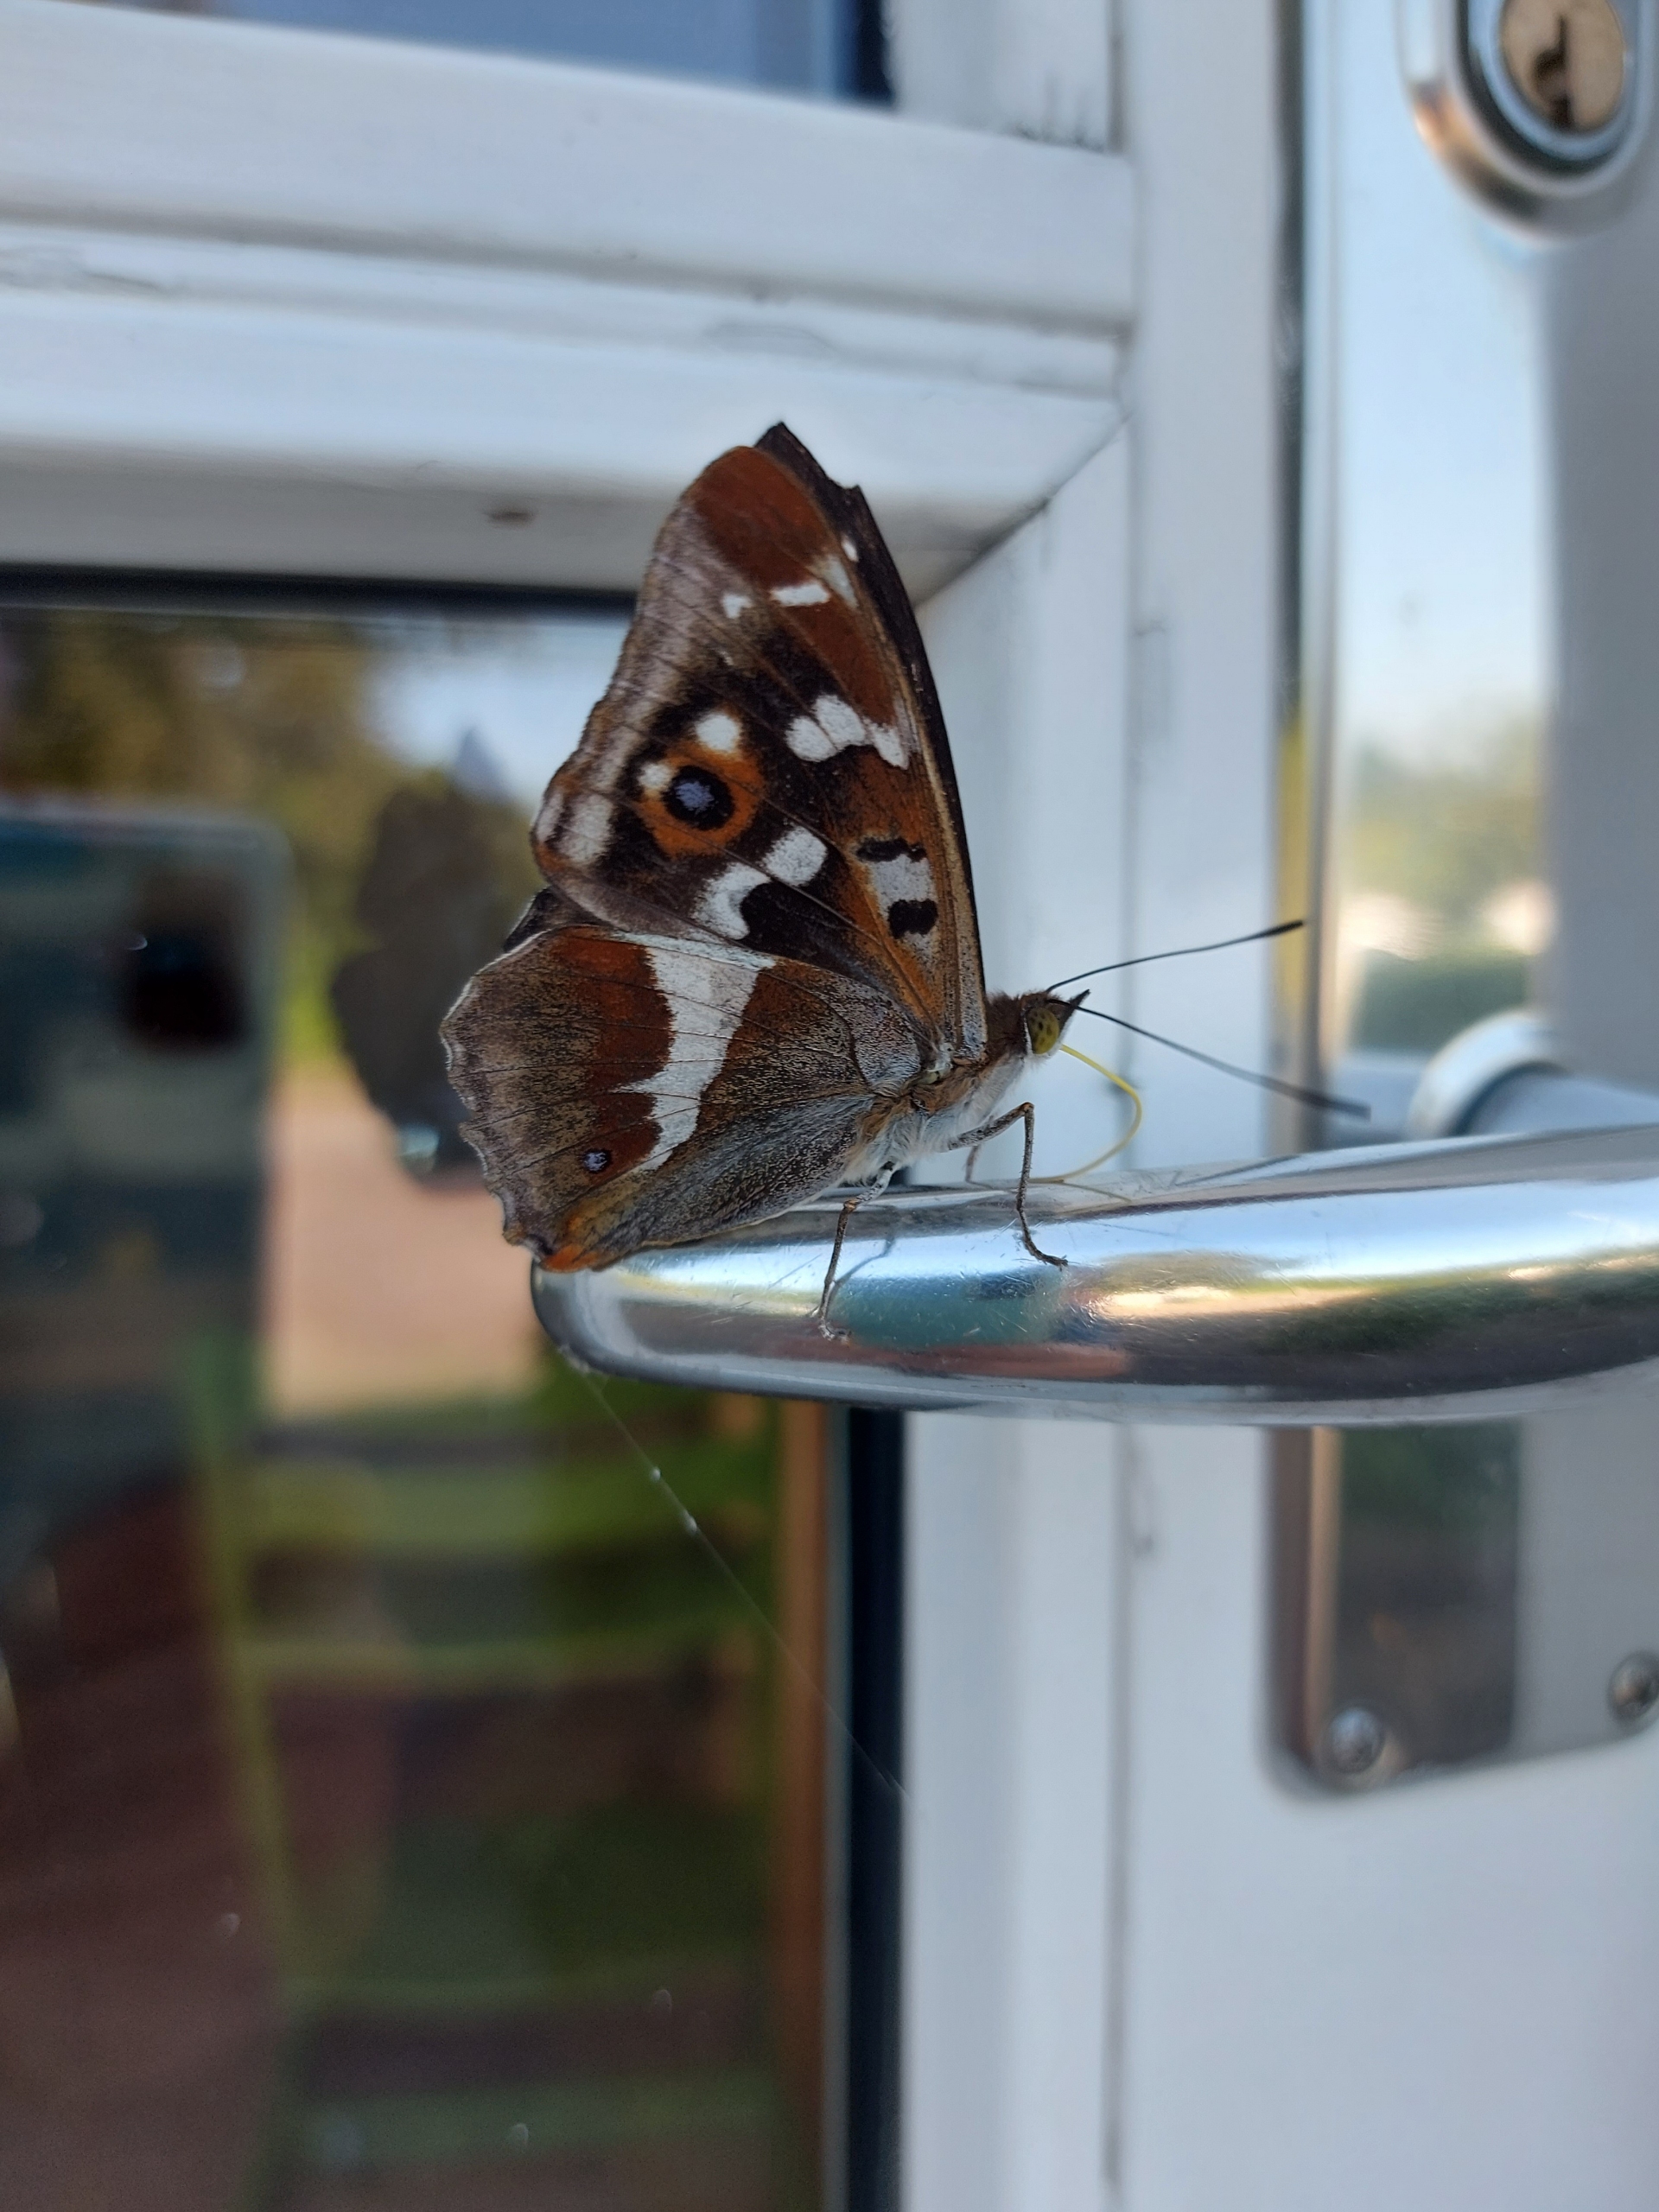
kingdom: Animalia
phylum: Arthropoda
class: Insecta
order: Lepidoptera
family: Nymphalidae
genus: Apatura
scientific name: Apatura iris
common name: Iris
